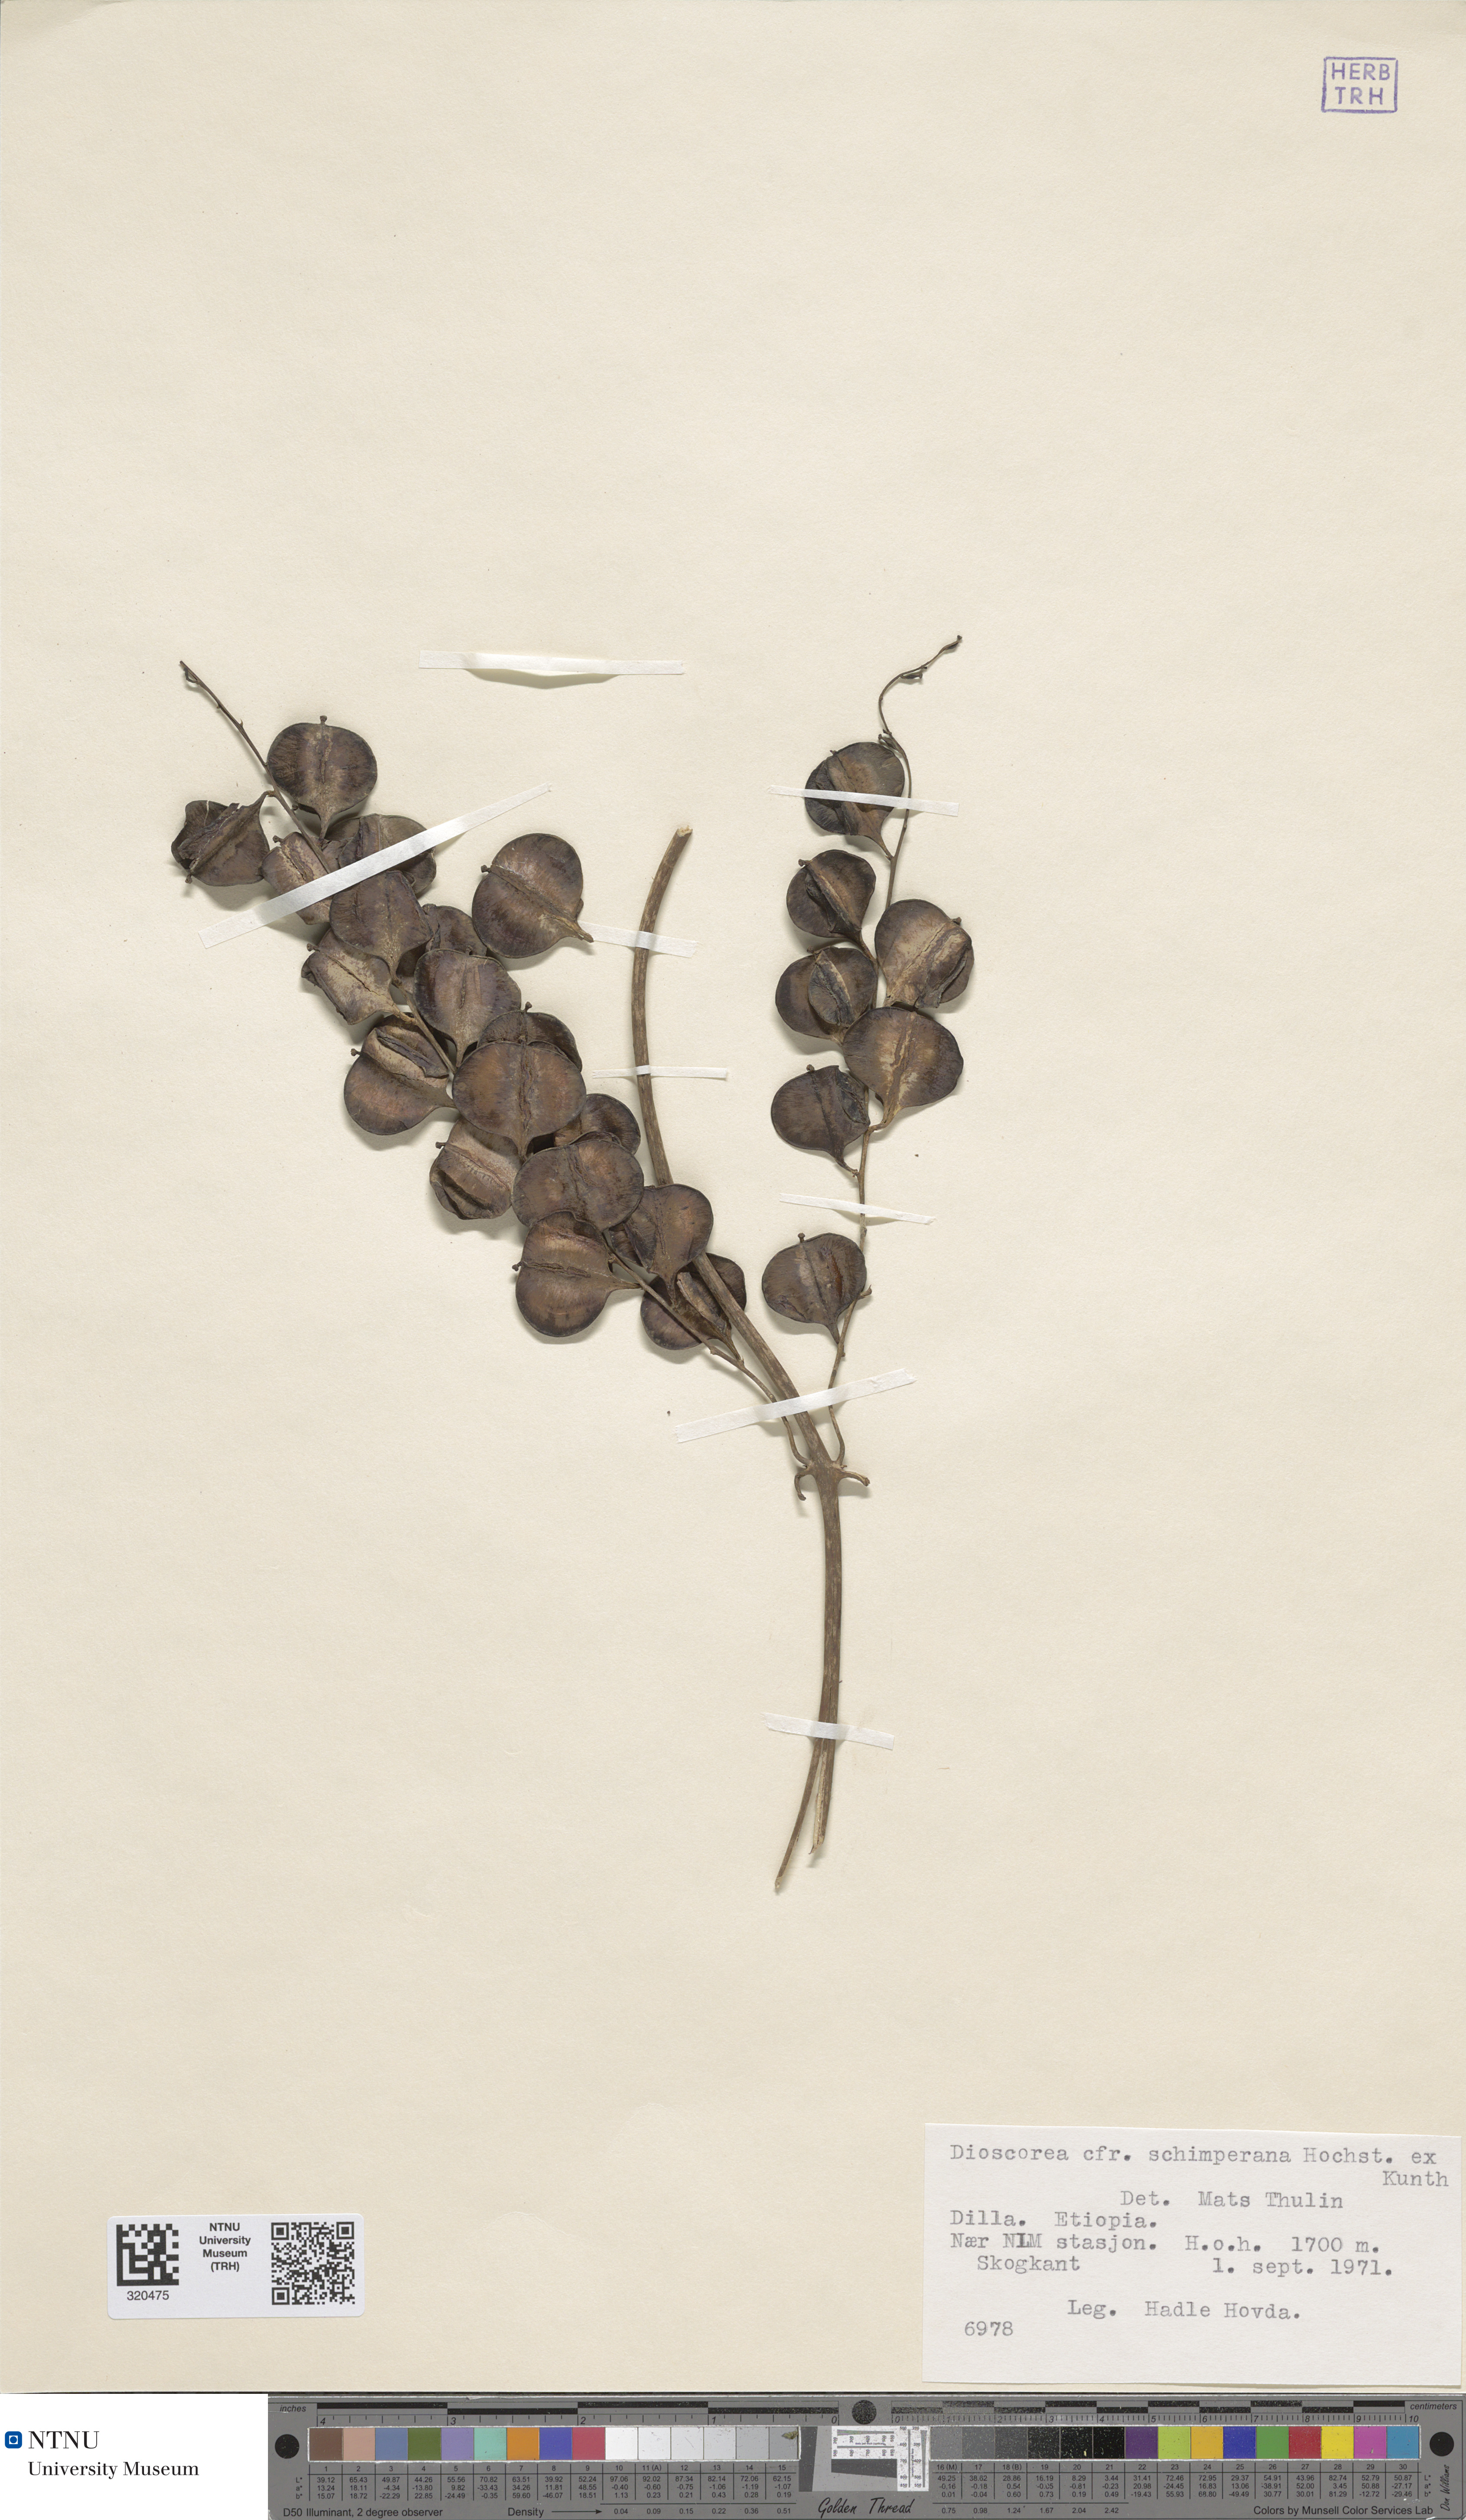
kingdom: Plantae
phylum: Tracheophyta
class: Liliopsida
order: Dioscoreales
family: Dioscoreaceae
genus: Dioscorea
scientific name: Dioscorea schimperiana
